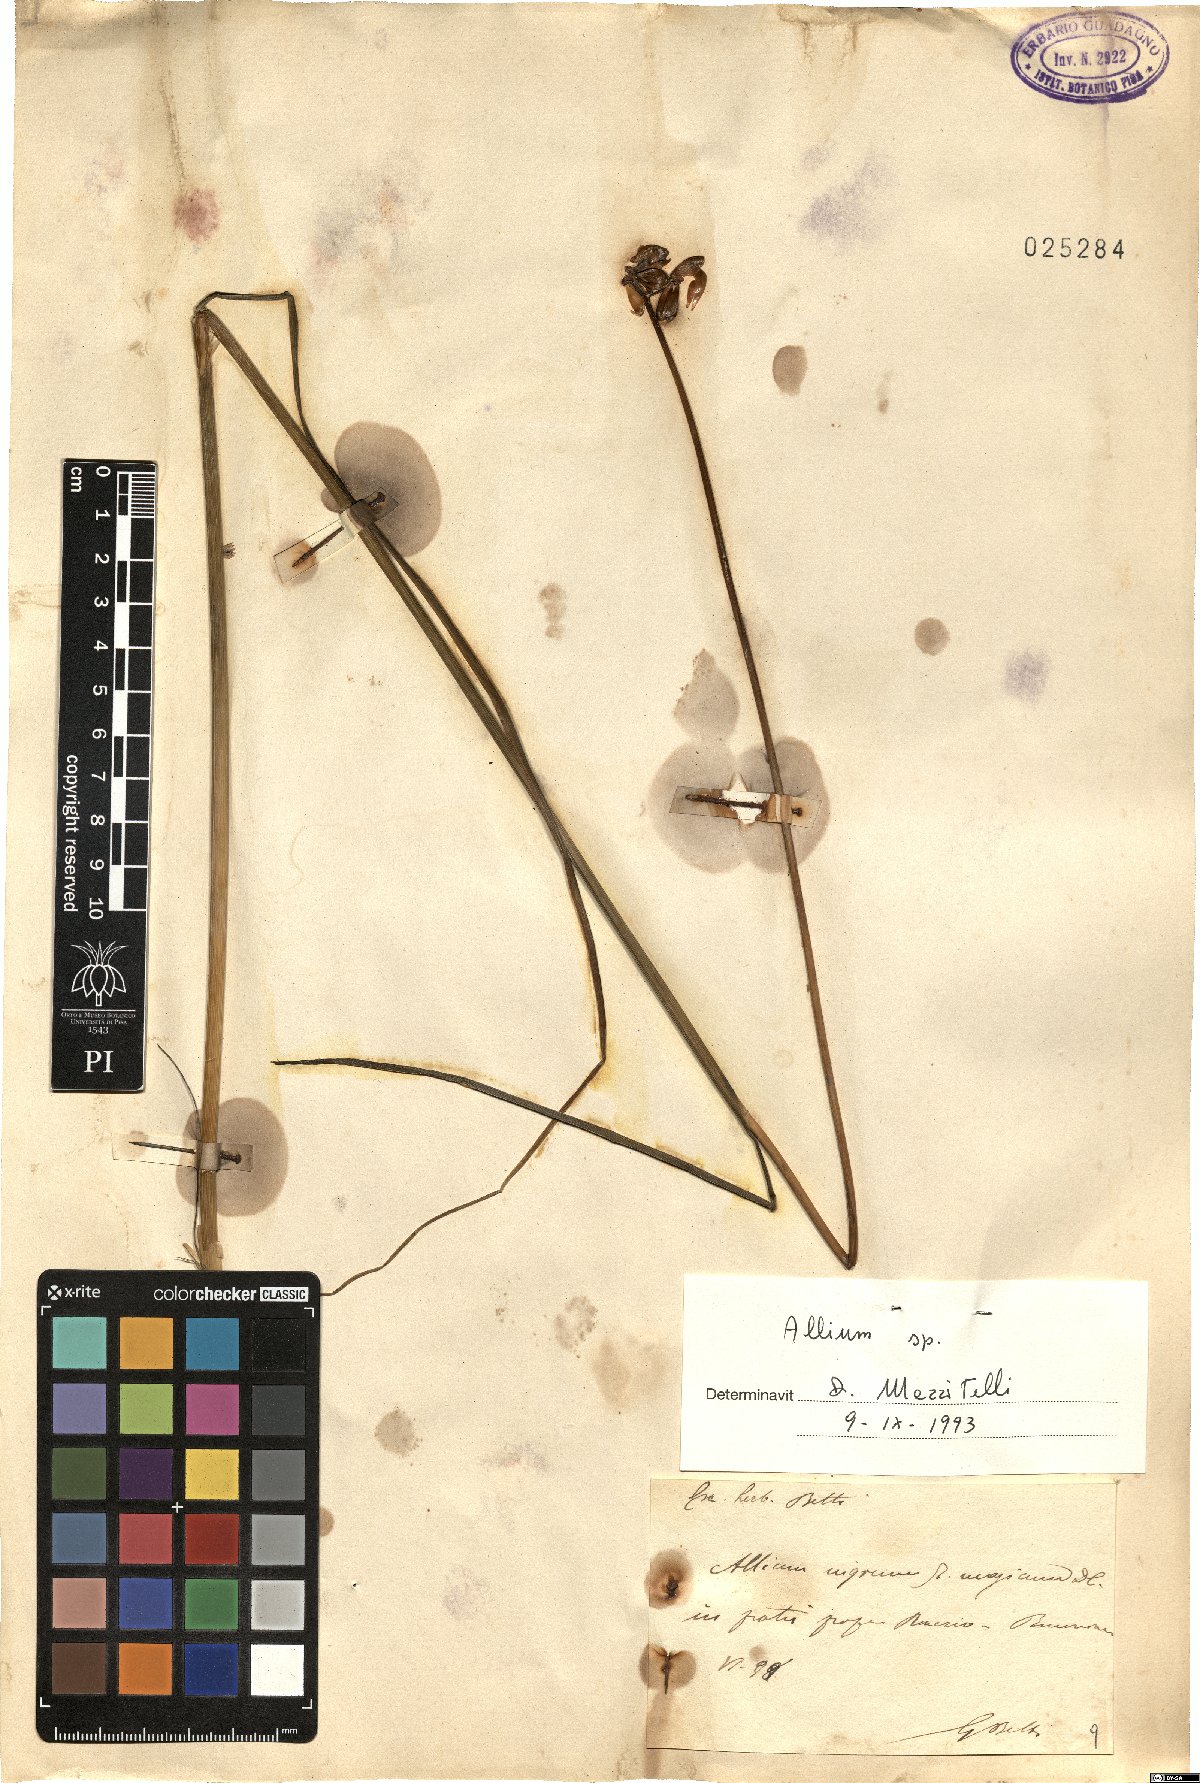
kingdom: Plantae
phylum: Tracheophyta
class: Liliopsida
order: Asparagales
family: Amaryllidaceae
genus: Allium
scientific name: Allium
